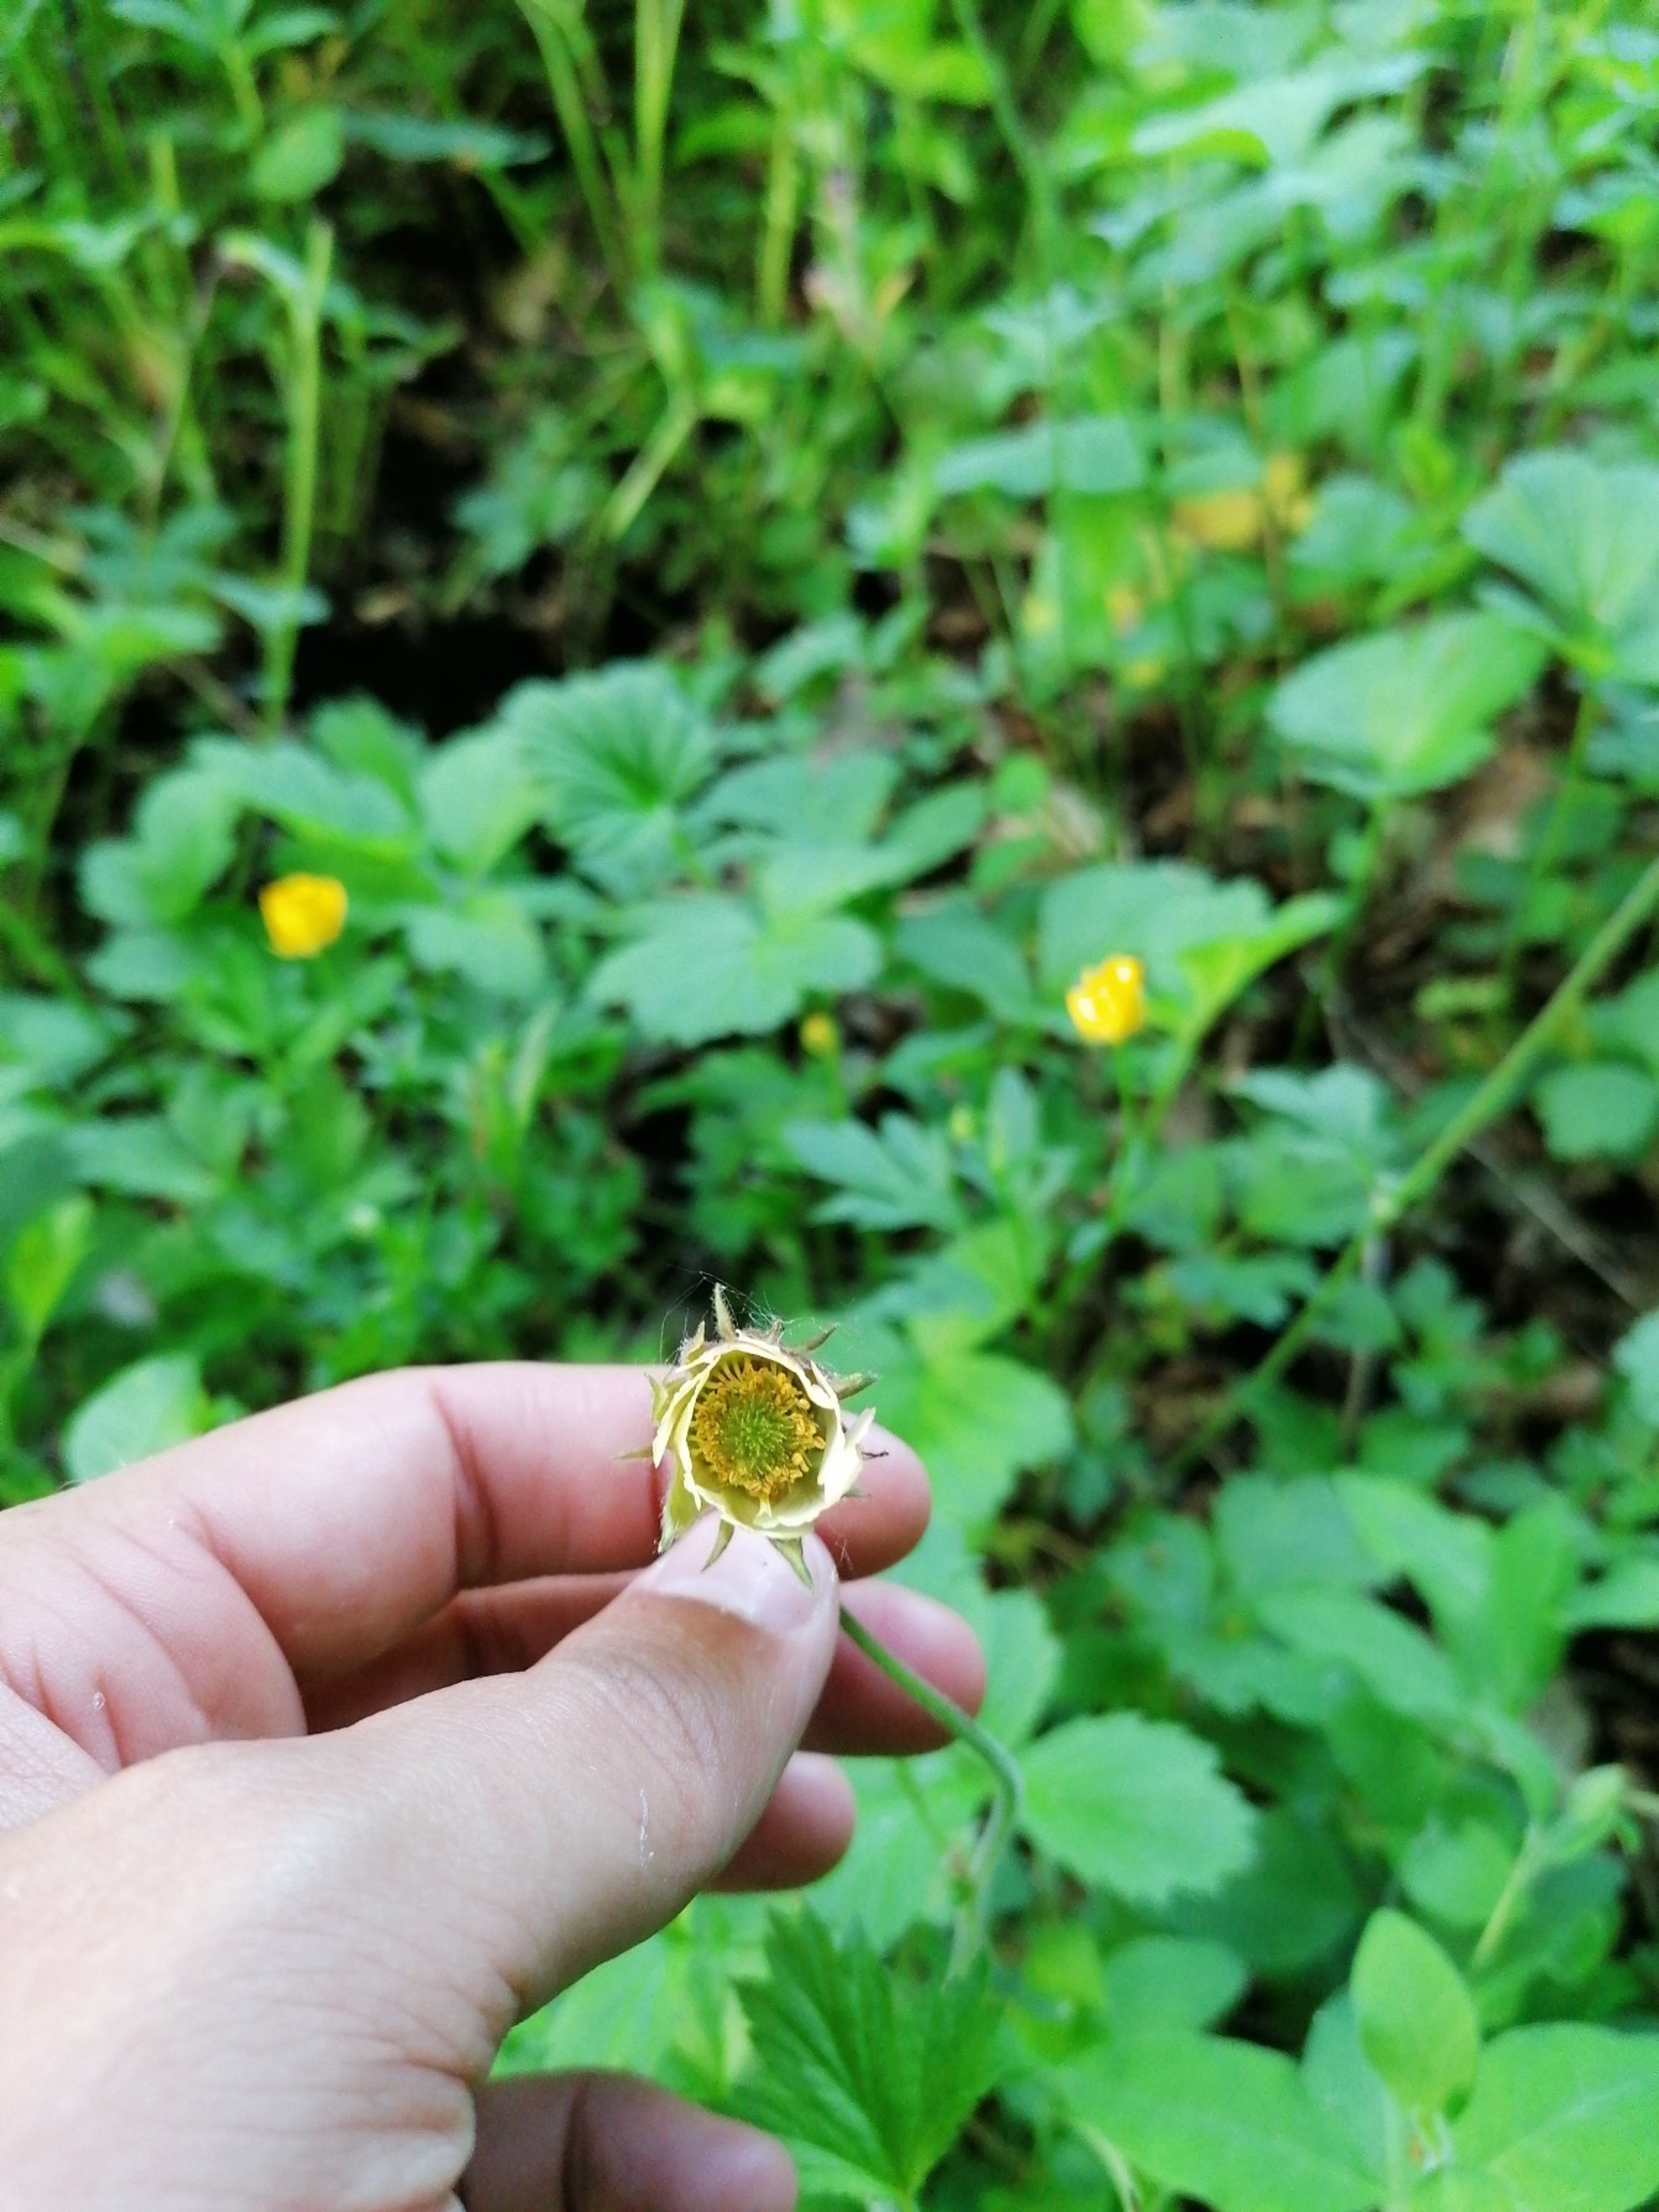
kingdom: Plantae
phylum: Tracheophyta
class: Magnoliopsida
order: Rosales
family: Rosaceae
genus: Geum
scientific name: Geum rivale
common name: Eng-nellikerod
